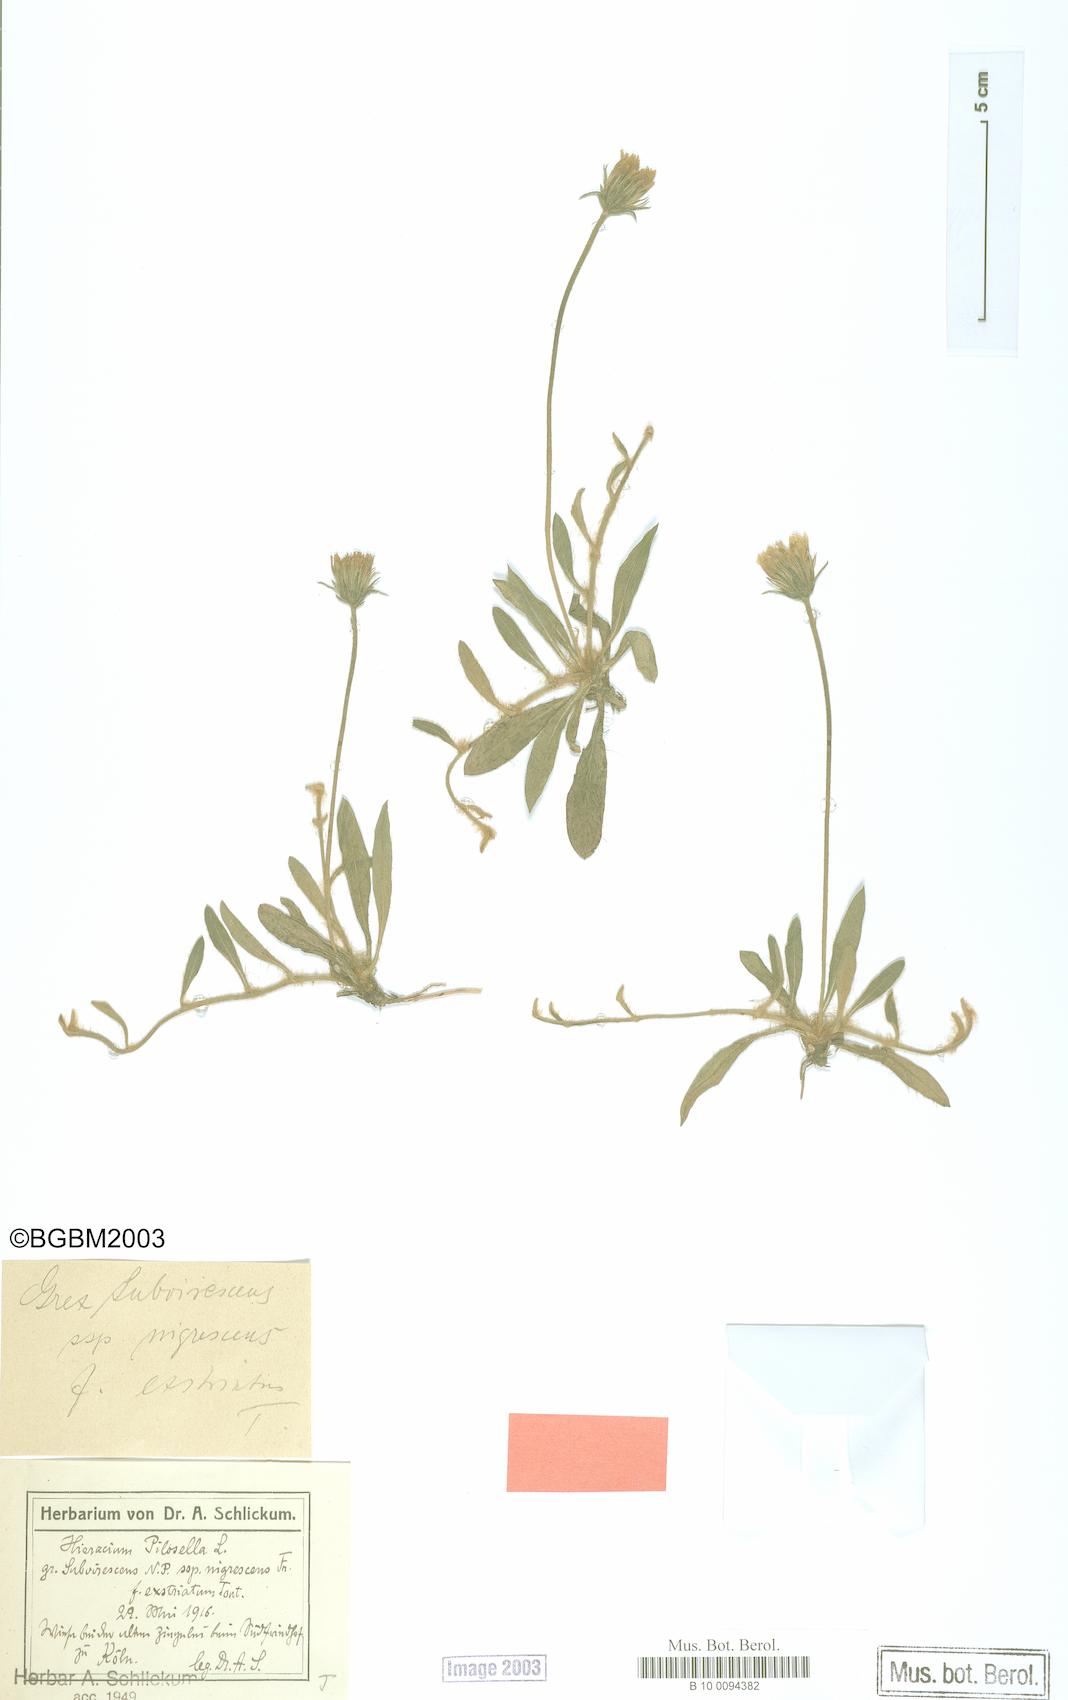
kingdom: Plantae
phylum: Tracheophyta
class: Magnoliopsida
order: Asterales
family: Asteraceae
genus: Pilosella
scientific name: Pilosella officinarum
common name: Mouse-ear hawkweed
